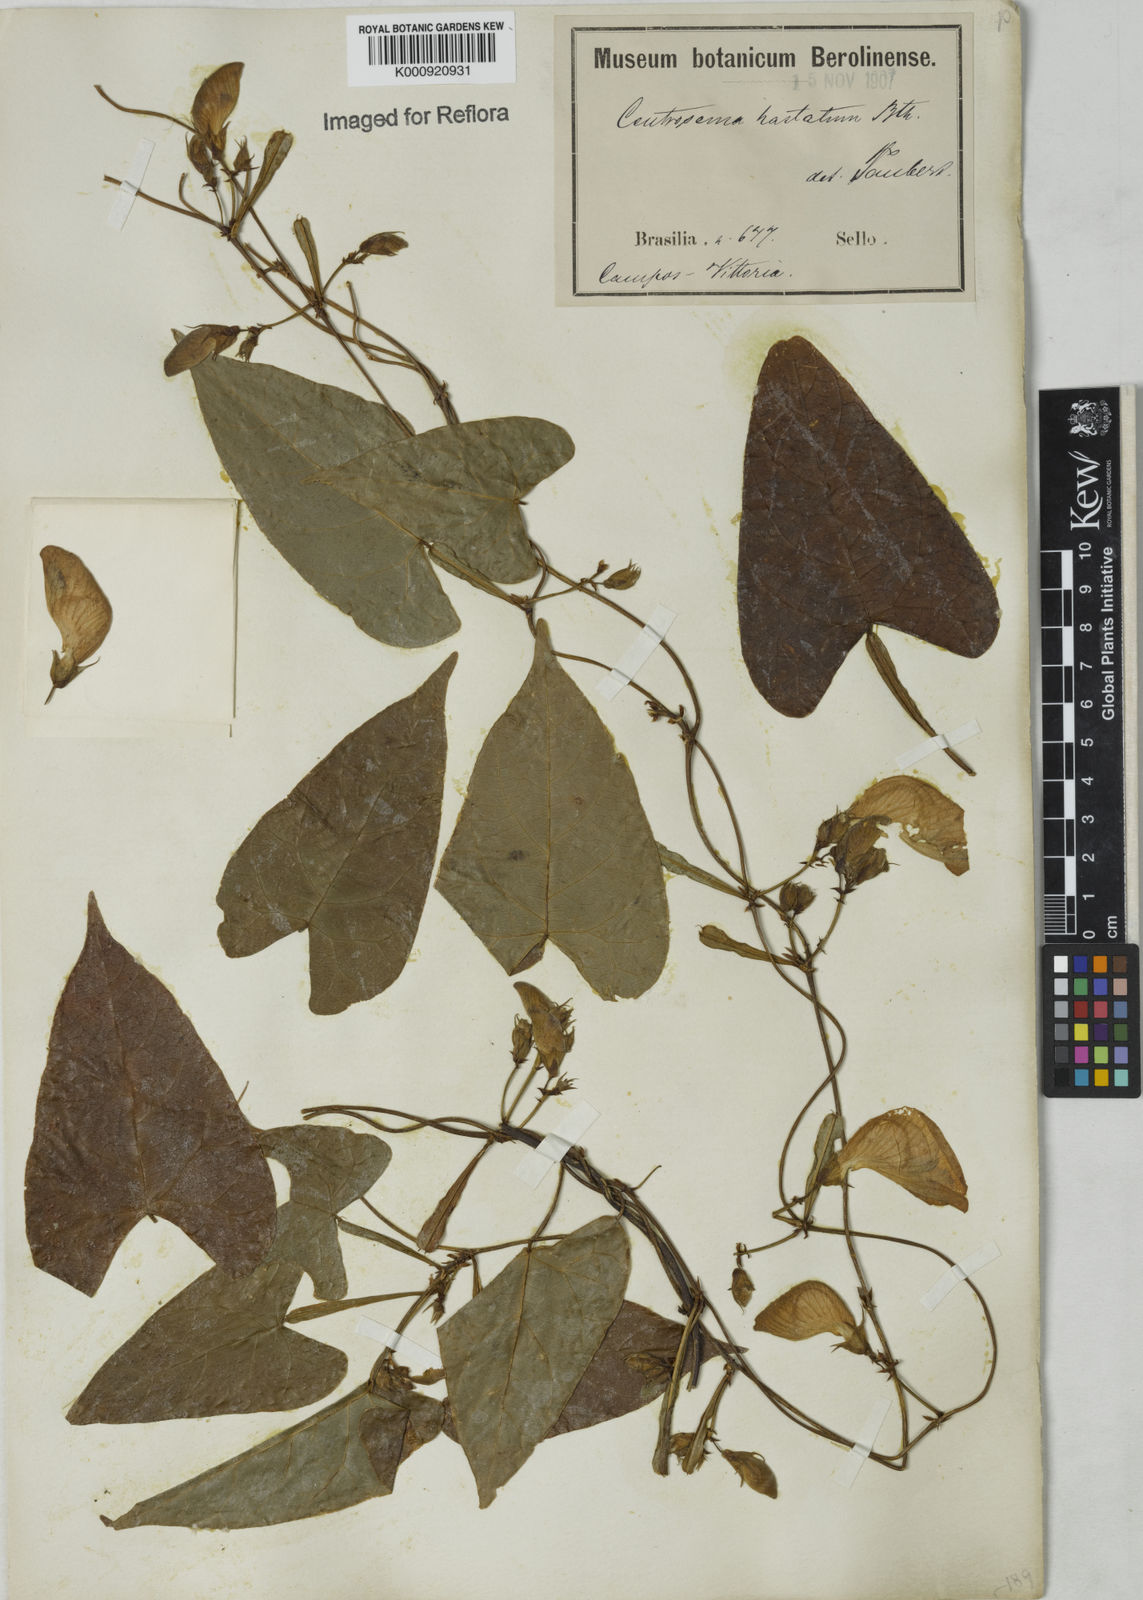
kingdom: Plantae
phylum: Tracheophyta
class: Magnoliopsida
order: Fabales
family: Fabaceae
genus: Centrosema
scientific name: Centrosema sagittatum
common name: Arrowleaf butterfly pea
